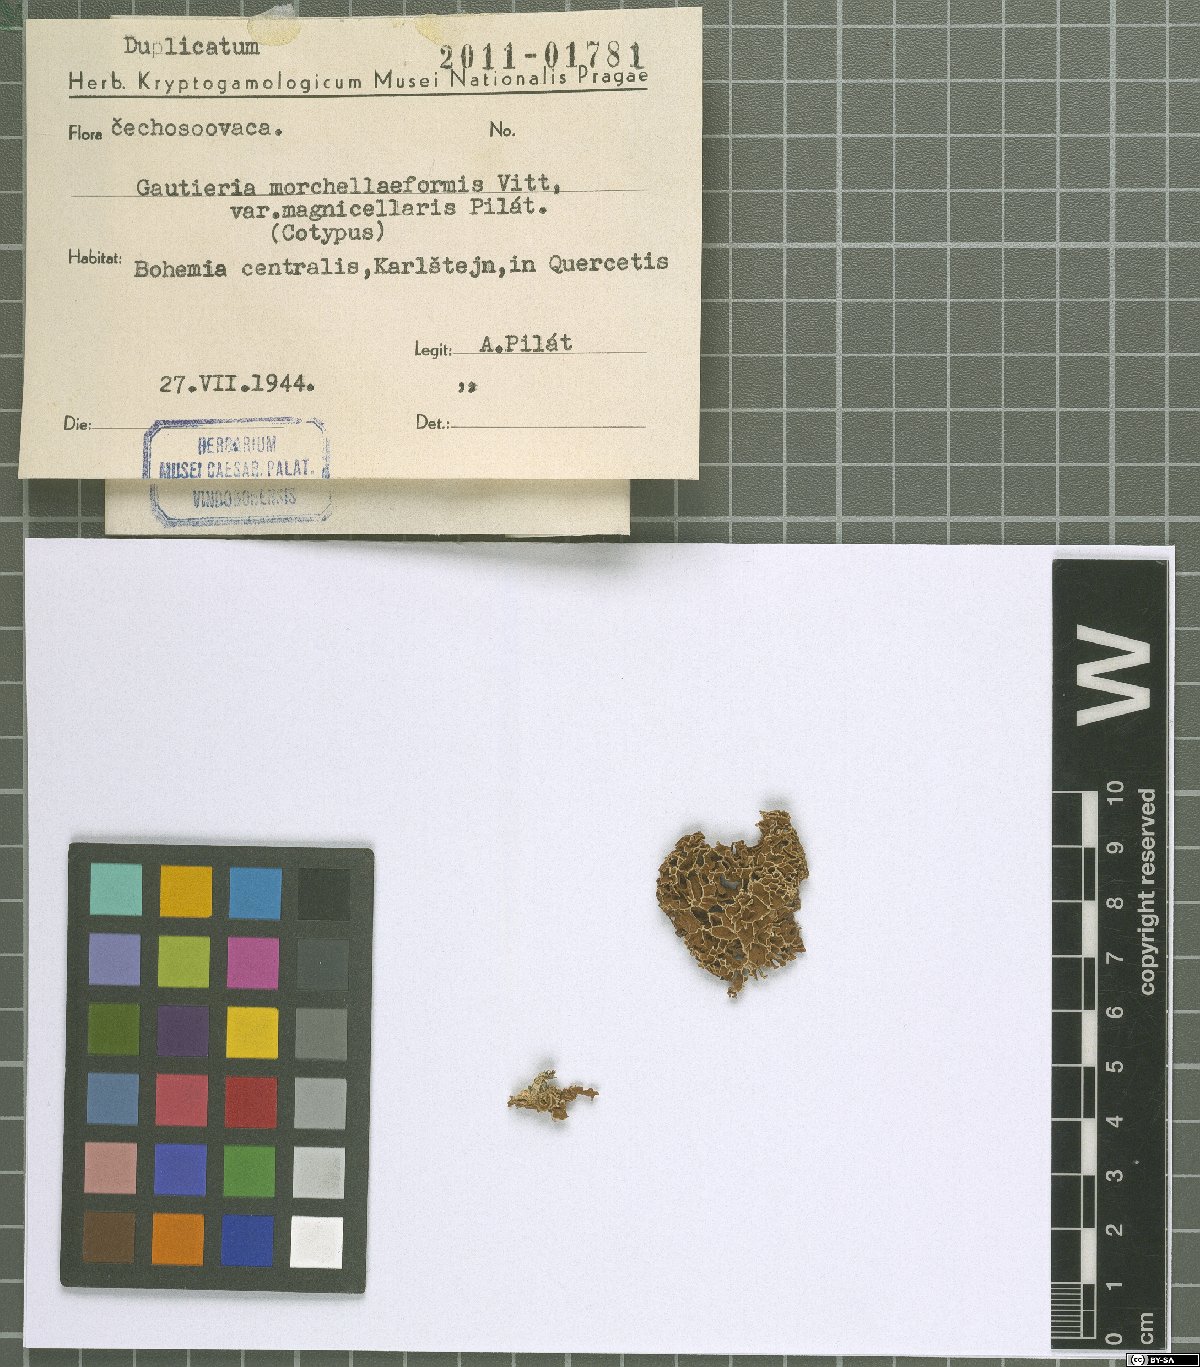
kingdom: Fungi
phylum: Basidiomycota
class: Agaricomycetes
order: Gomphales
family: Gomphaceae
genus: Gautieria
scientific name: Gautieria morchelliformis
